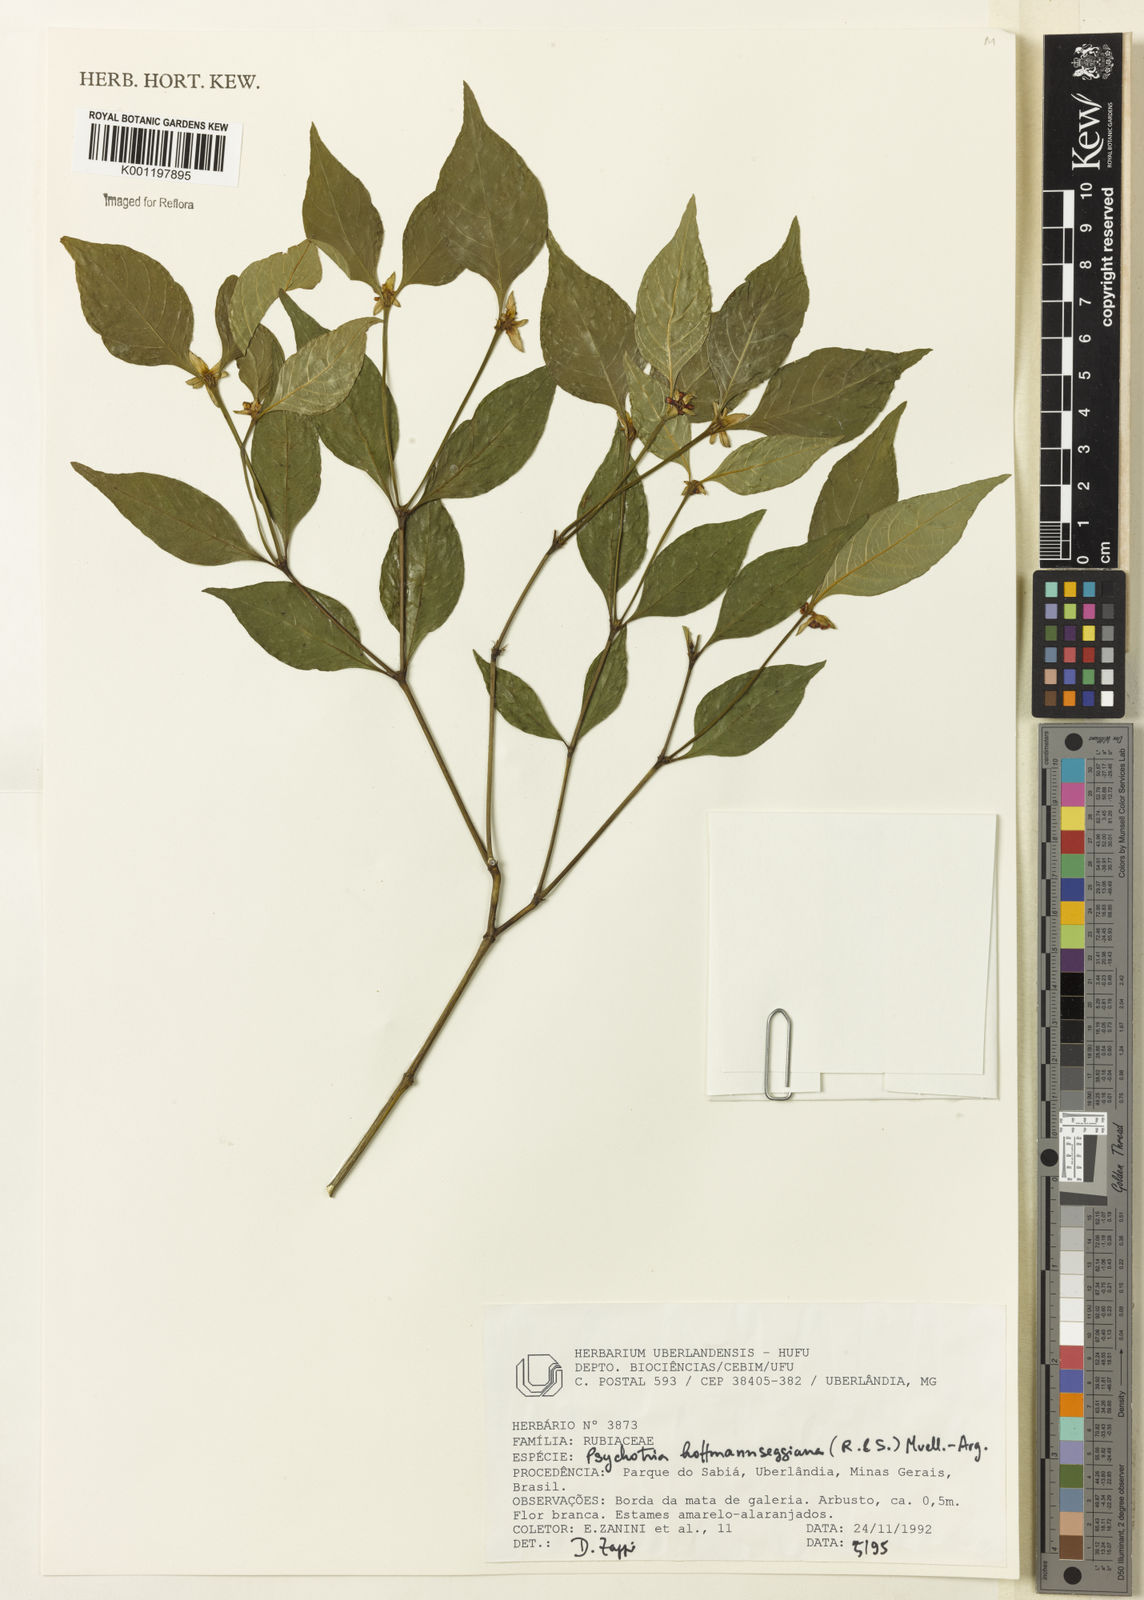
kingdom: Plantae
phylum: Tracheophyta
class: Magnoliopsida
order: Gentianales
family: Rubiaceae
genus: Psychotria
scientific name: Psychotria
